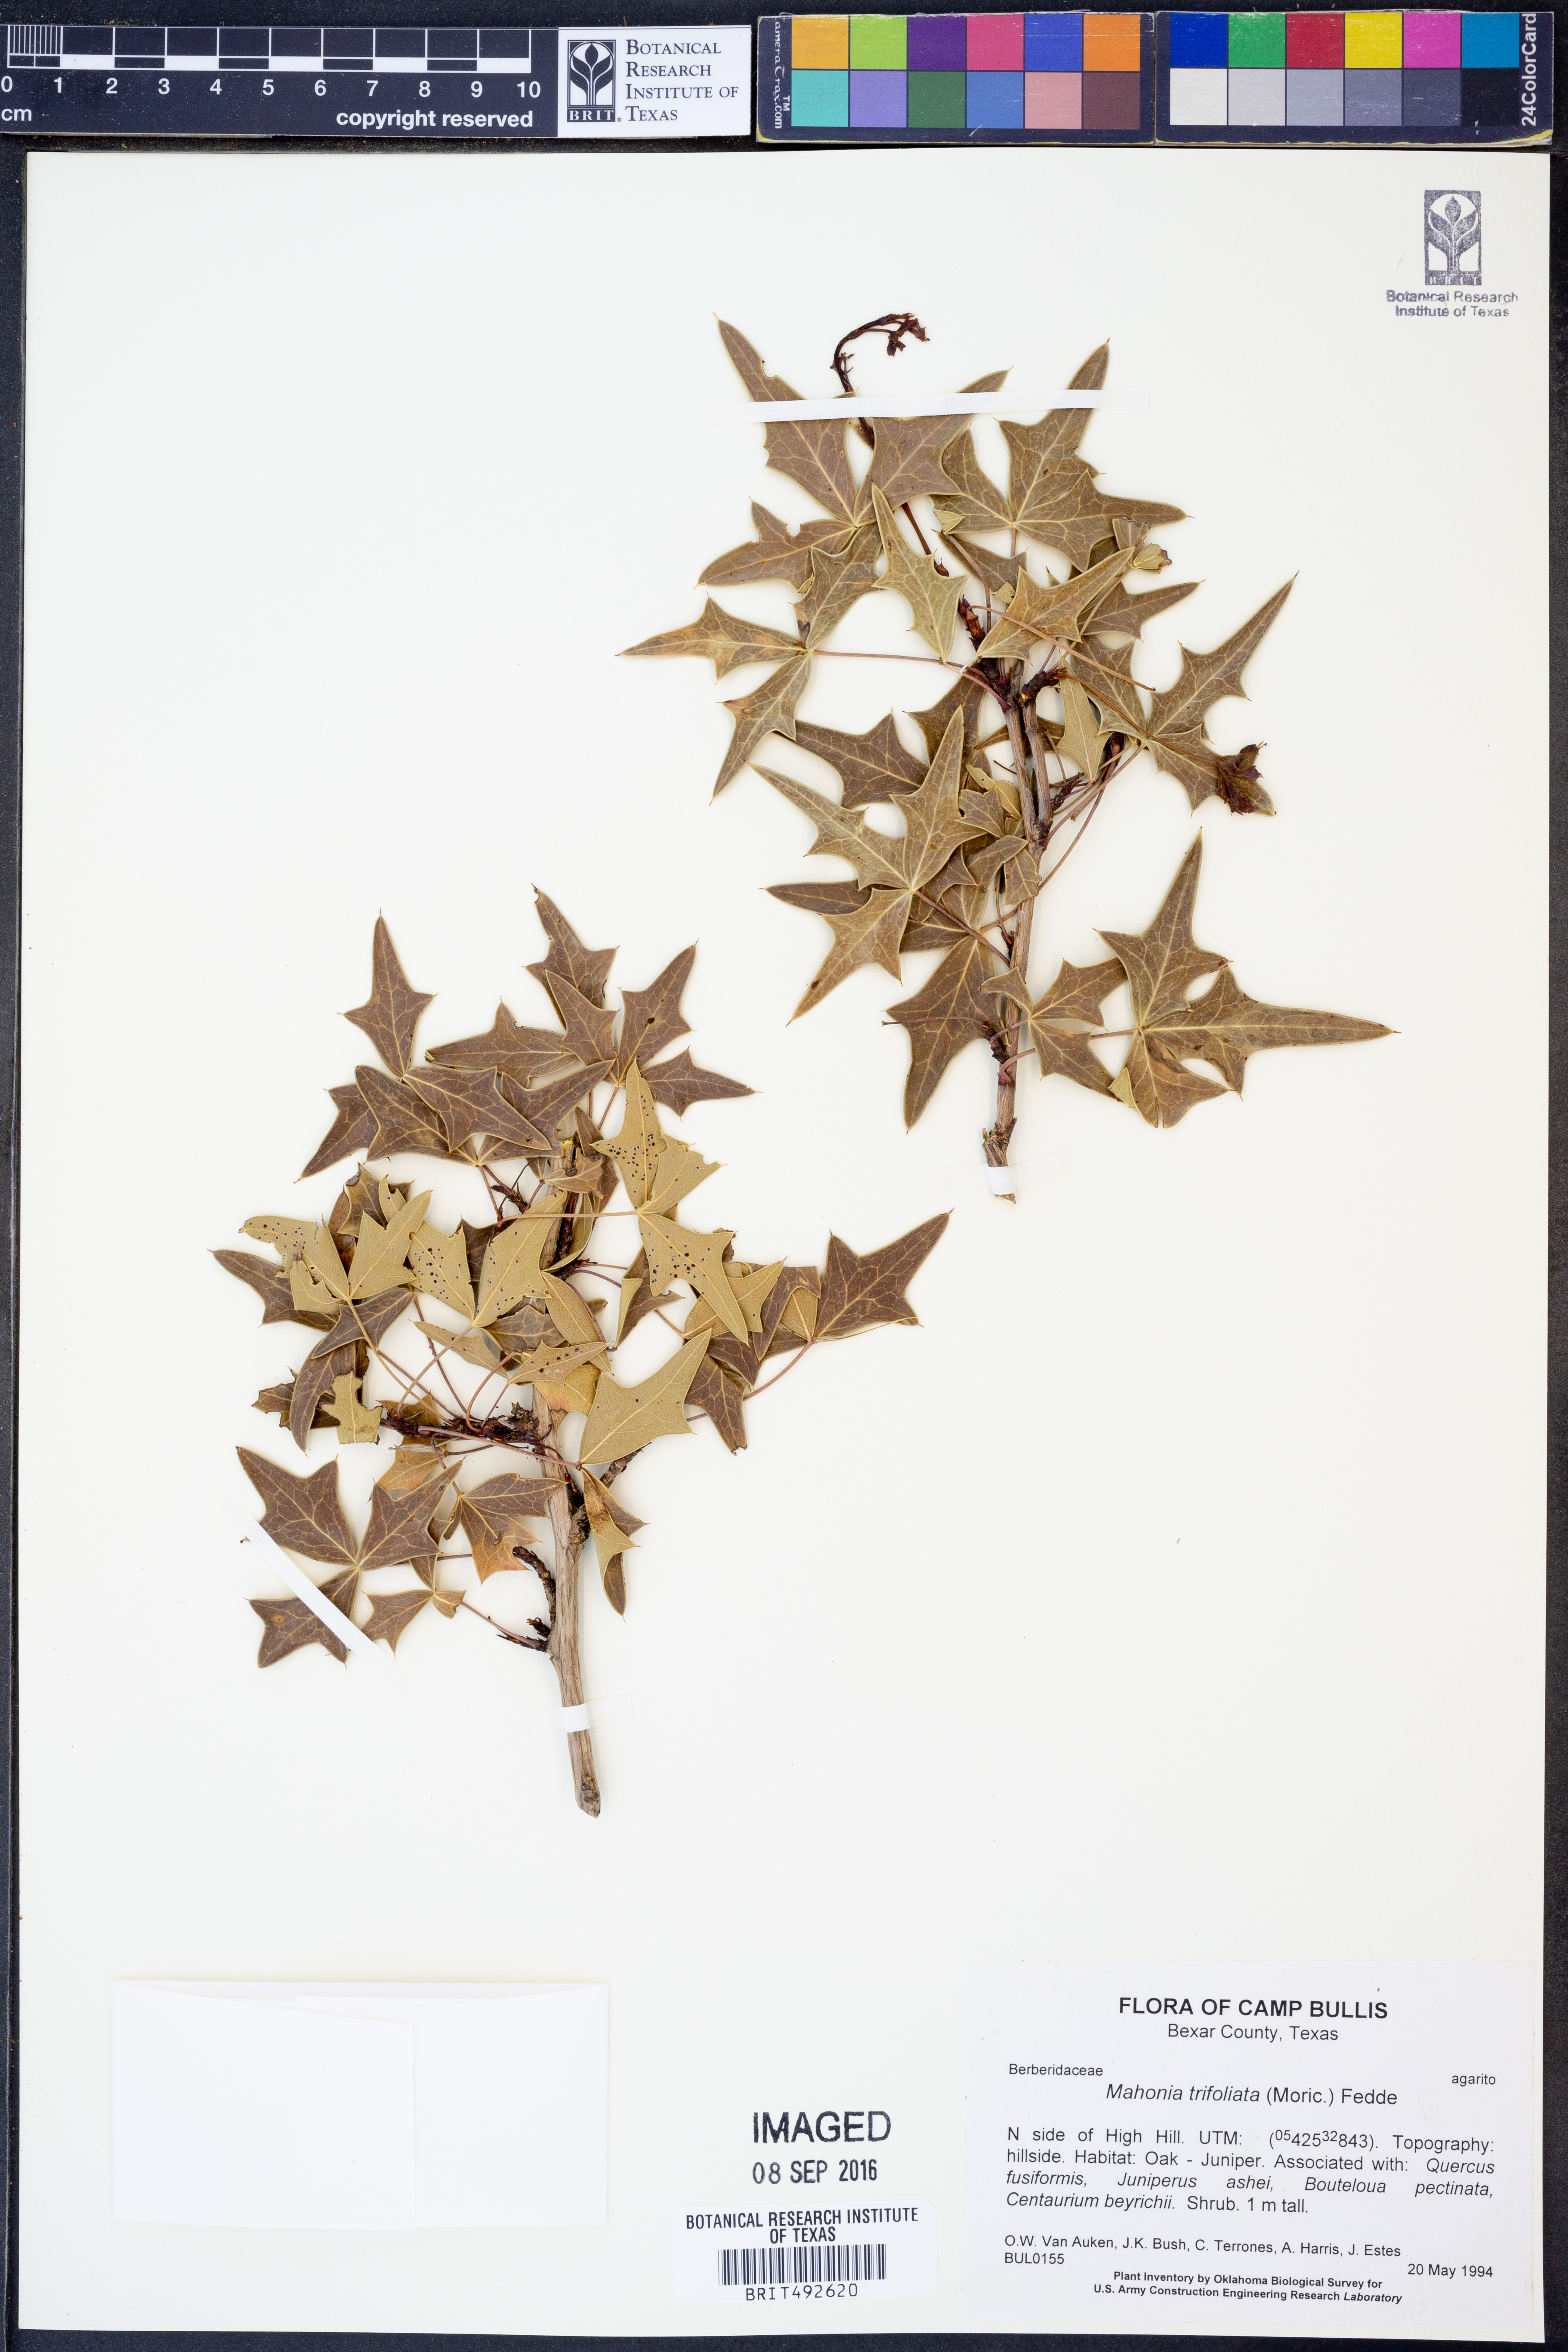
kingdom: Plantae
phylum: Tracheophyta
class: Magnoliopsida
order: Ranunculales
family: Berberidaceae
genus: Mahonia
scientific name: Mahonia trifolia
